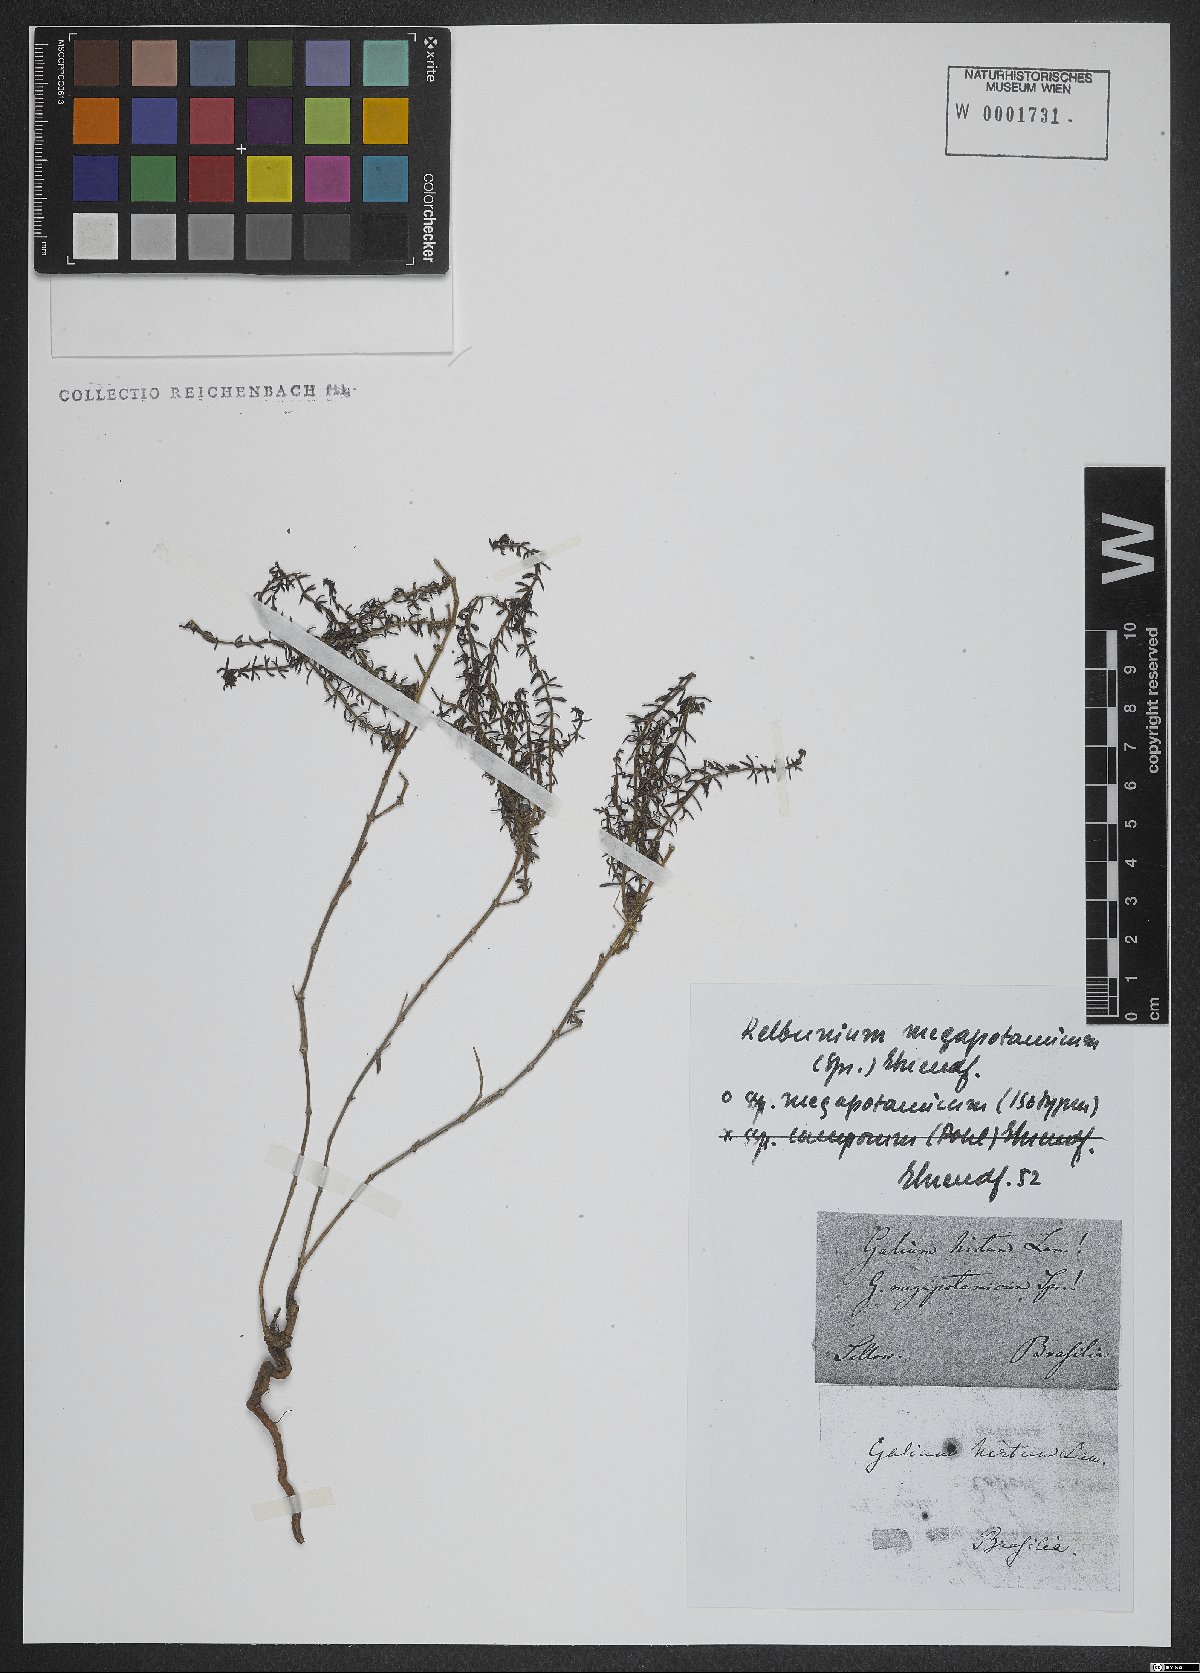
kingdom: Plantae
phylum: Tracheophyta
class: Magnoliopsida
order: Gentianales
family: Rubiaceae
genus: Galium
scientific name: Galium megapotamicum
